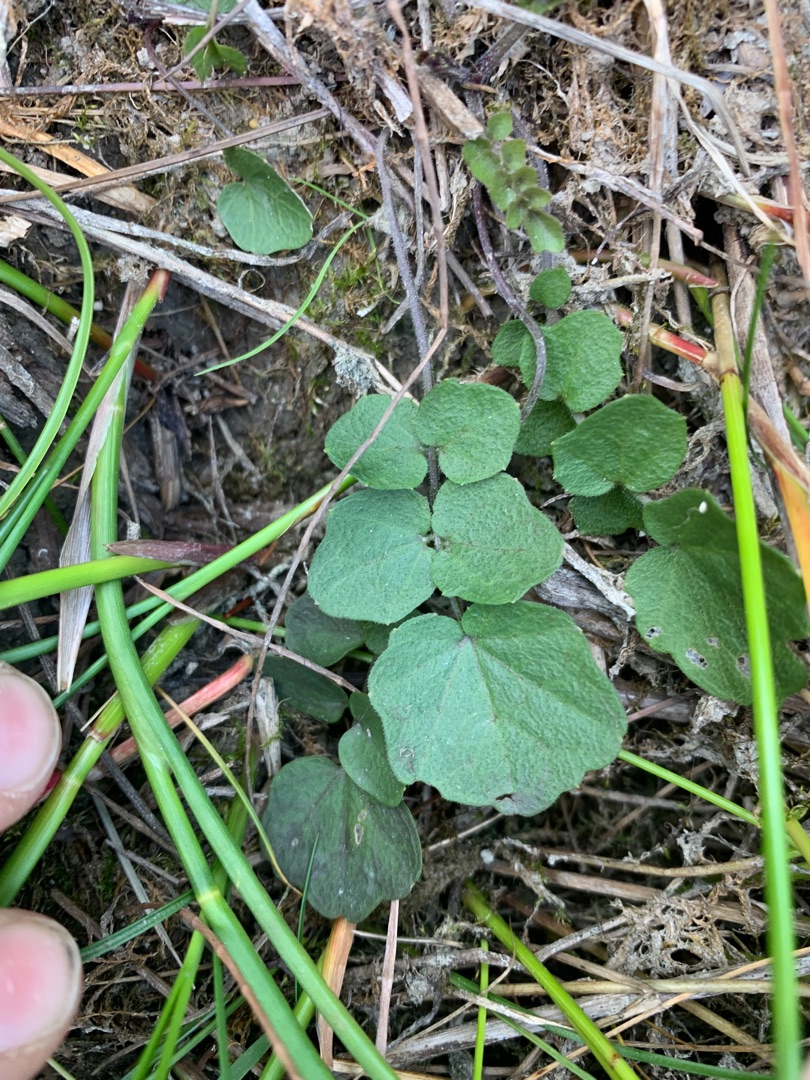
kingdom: Plantae
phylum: Tracheophyta
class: Magnoliopsida
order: Brassicales
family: Brassicaceae
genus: Cardamine
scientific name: Cardamine pratensis
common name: Engkarse
